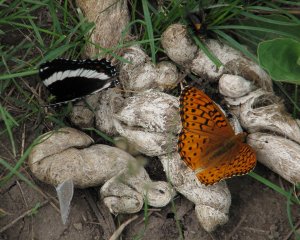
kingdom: Animalia
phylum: Arthropoda
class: Insecta
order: Lepidoptera
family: Nymphalidae
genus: Limenitis
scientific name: Limenitis arthemis
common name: Red-spotted Admiral
